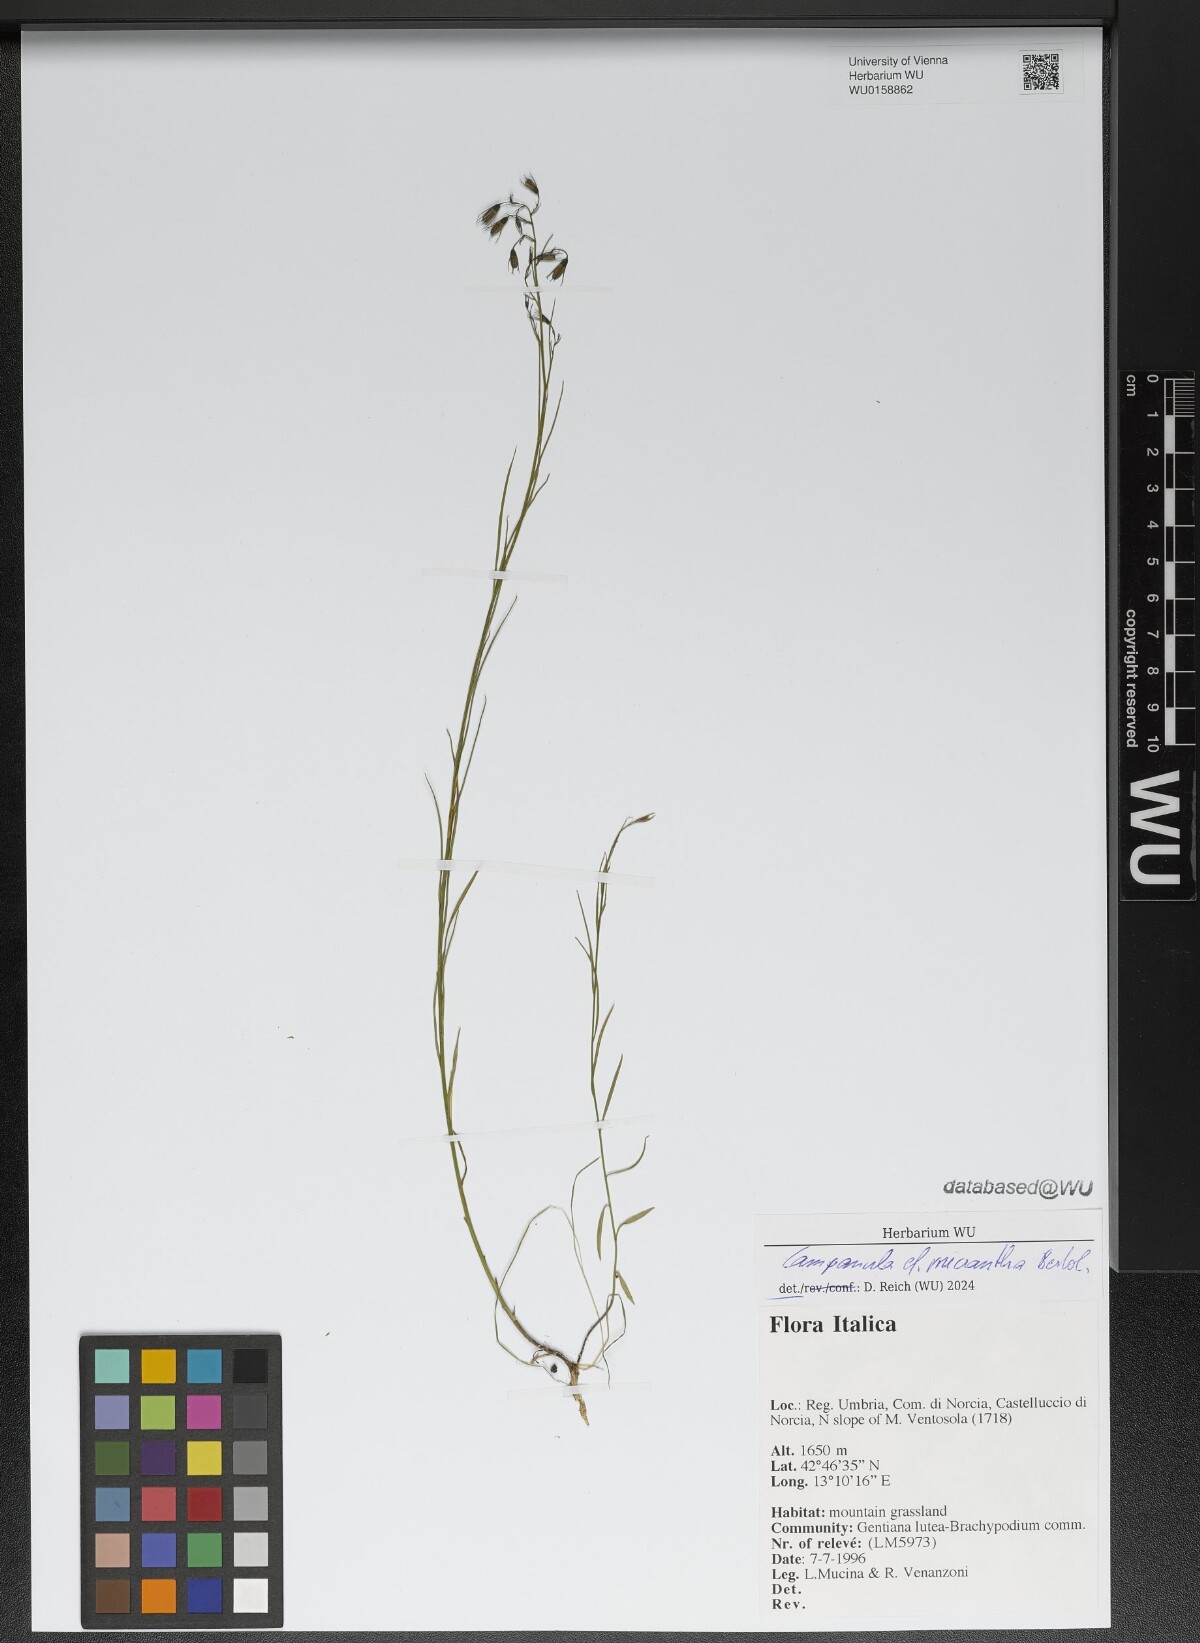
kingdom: Plantae
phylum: Tracheophyta
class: Magnoliopsida
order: Asterales
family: Campanulaceae
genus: Campanula
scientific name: Campanula micrantha
